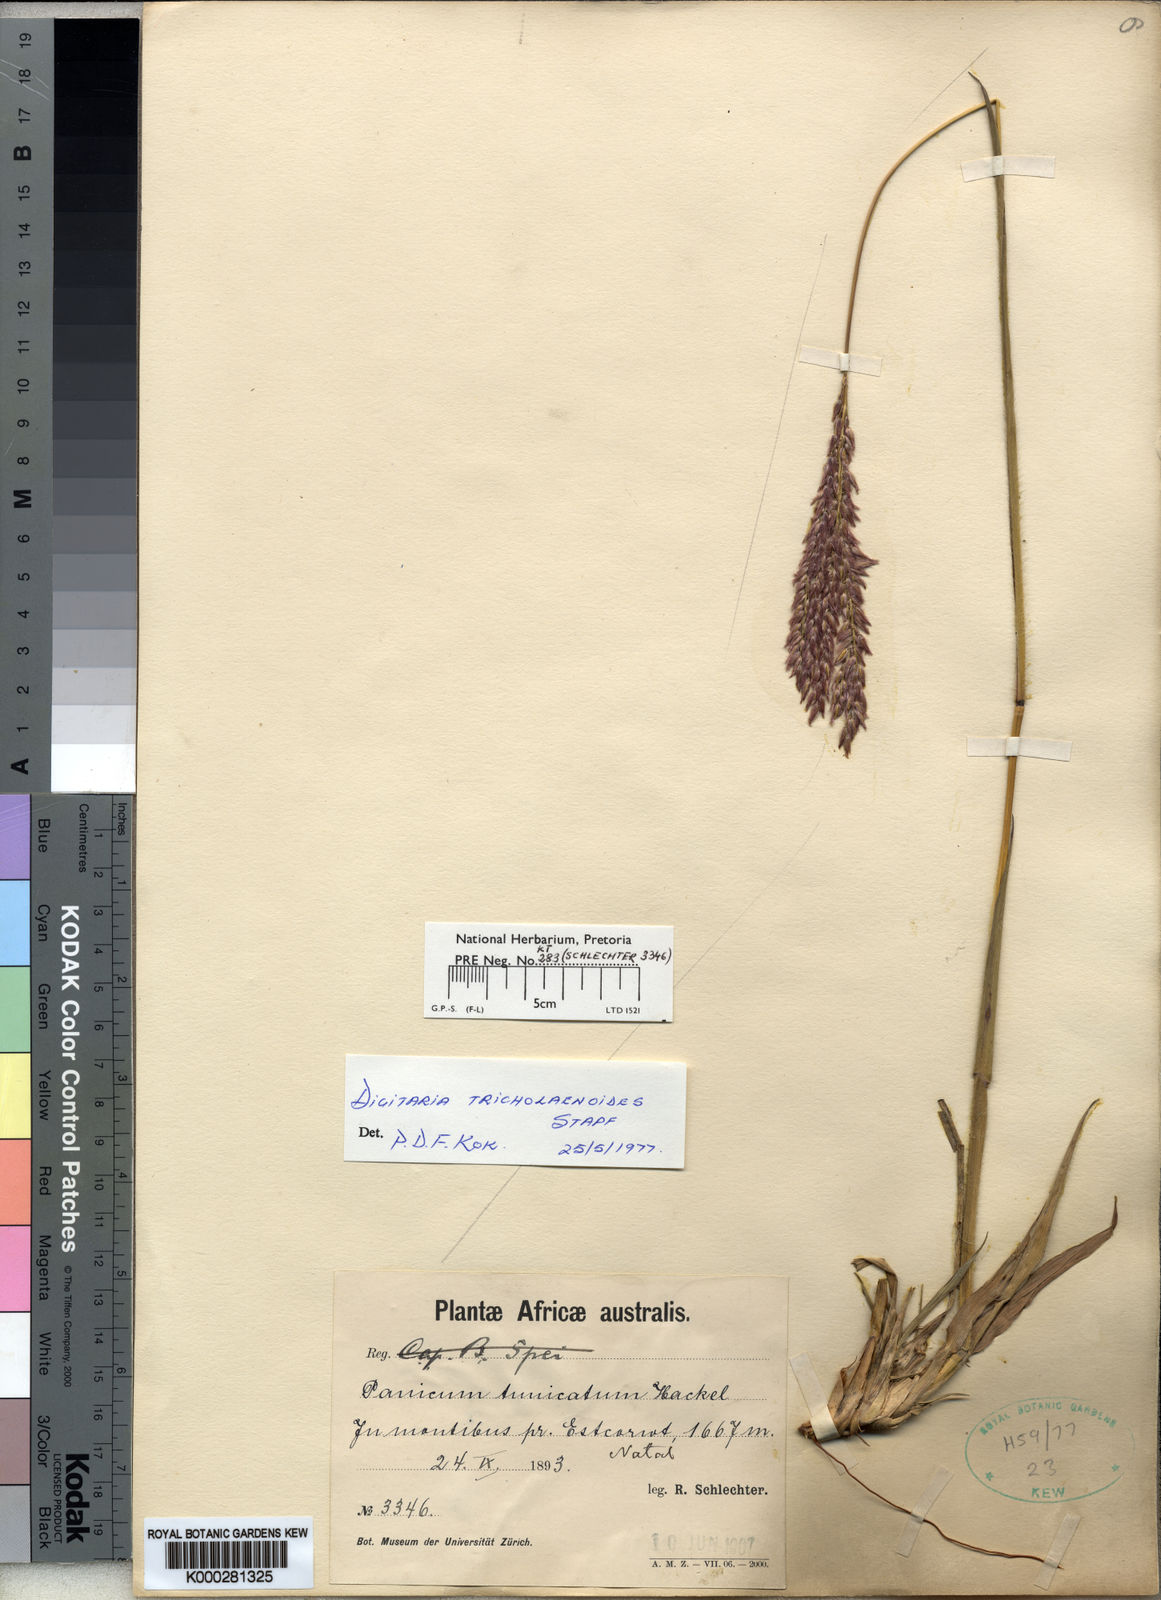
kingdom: Plantae
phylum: Tracheophyta
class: Liliopsida
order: Poales
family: Poaceae
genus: Digitaria
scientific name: Digitaria tricholaenoides
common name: Purple finger grass
